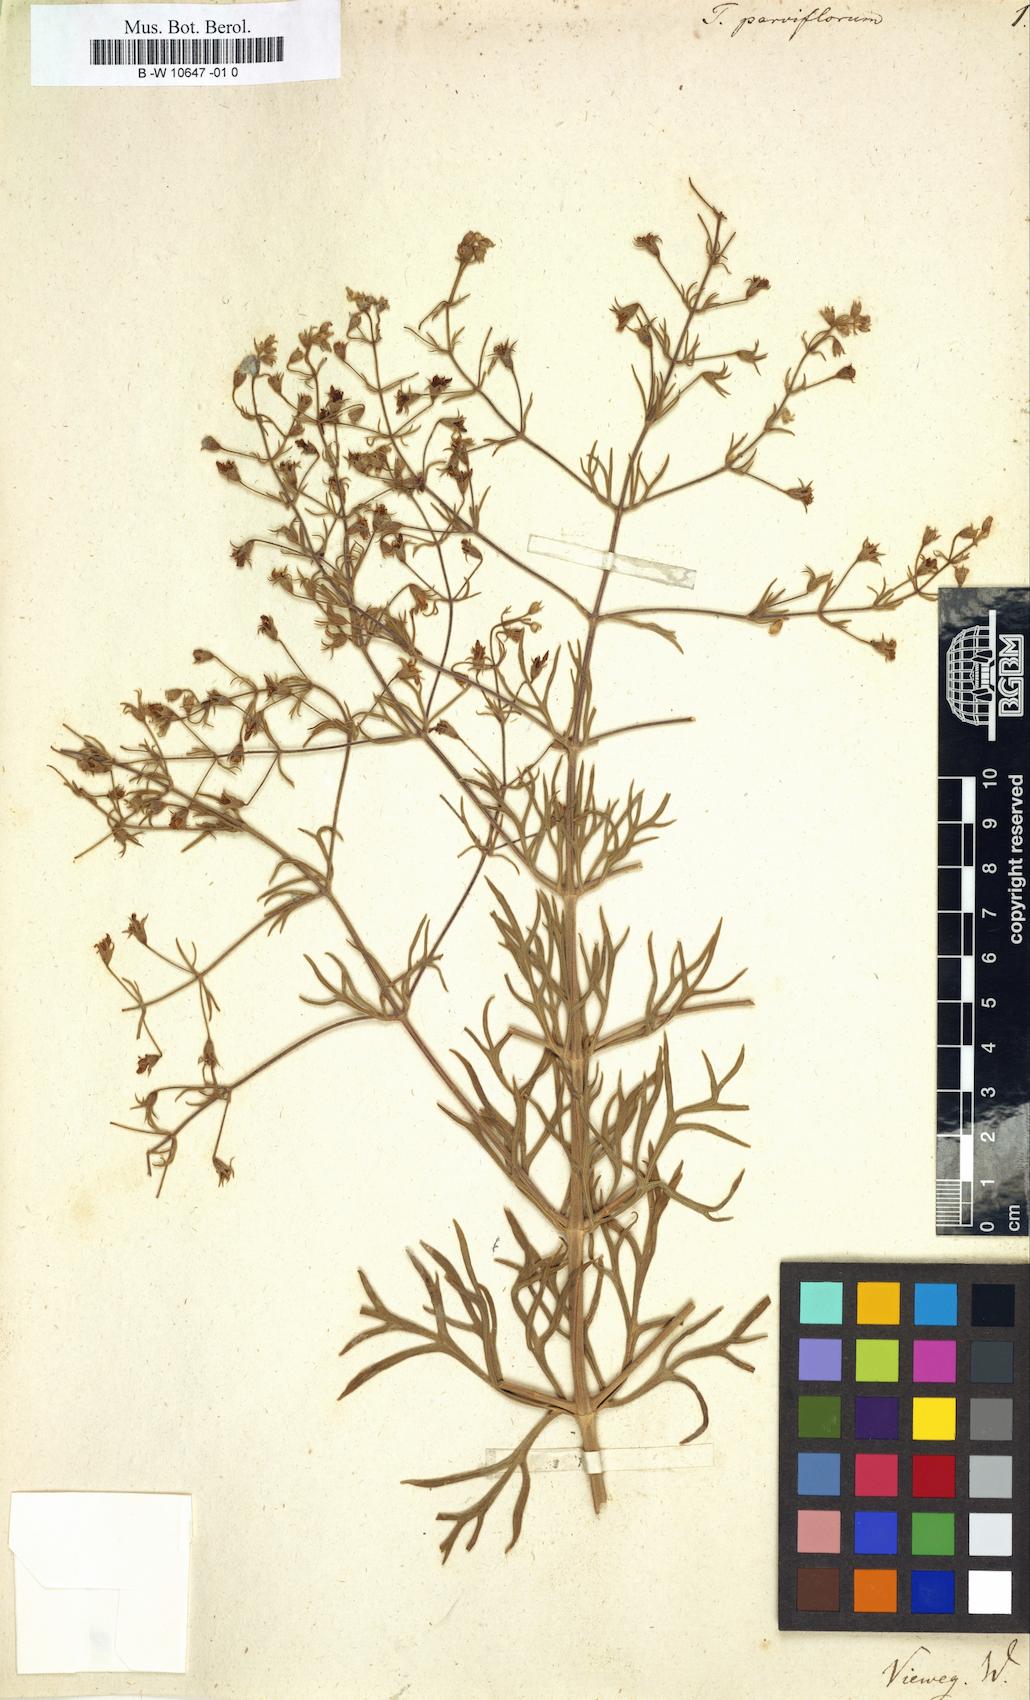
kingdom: Plantae
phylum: Tracheophyta
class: Magnoliopsida
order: Lamiales
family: Lamiaceae
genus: Teucrium
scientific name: Teucrium parviflorum
